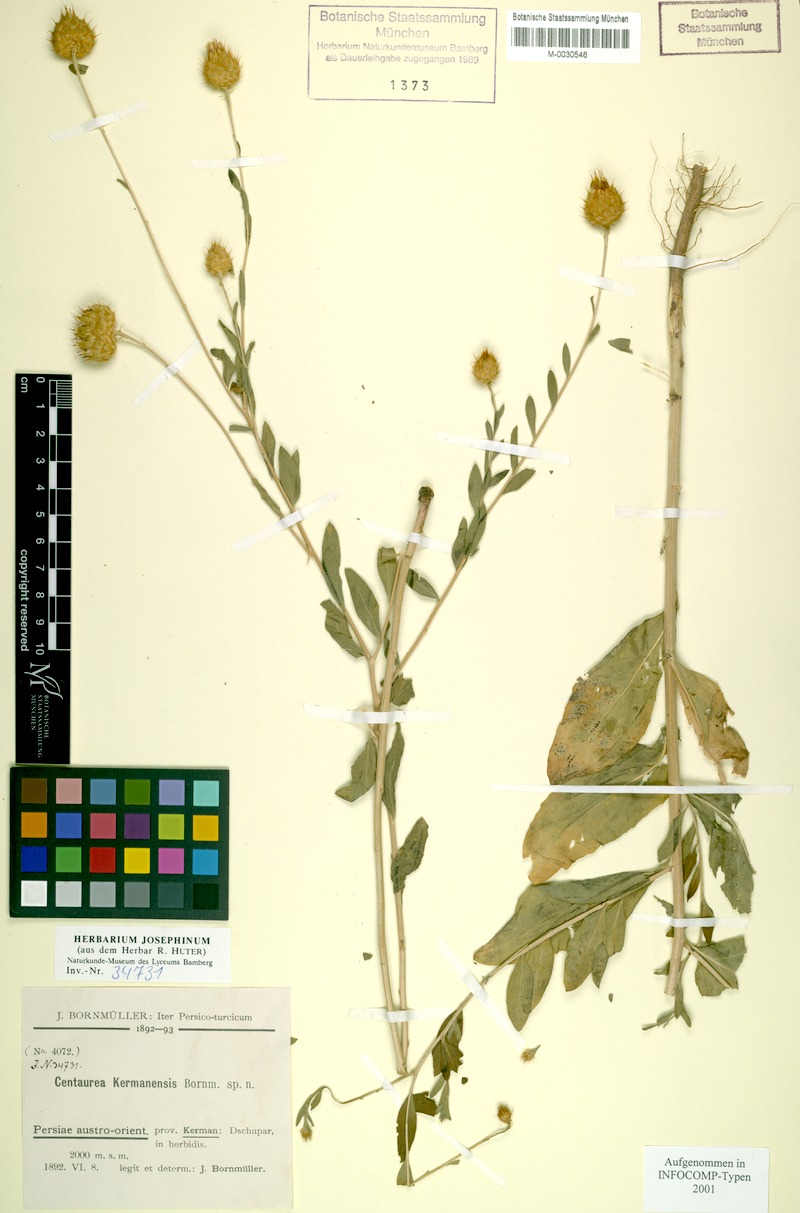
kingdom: Plantae
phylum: Tracheophyta
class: Magnoliopsida
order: Asterales
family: Asteraceae
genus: Stizolophus
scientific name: Stizolophus kermanensis
